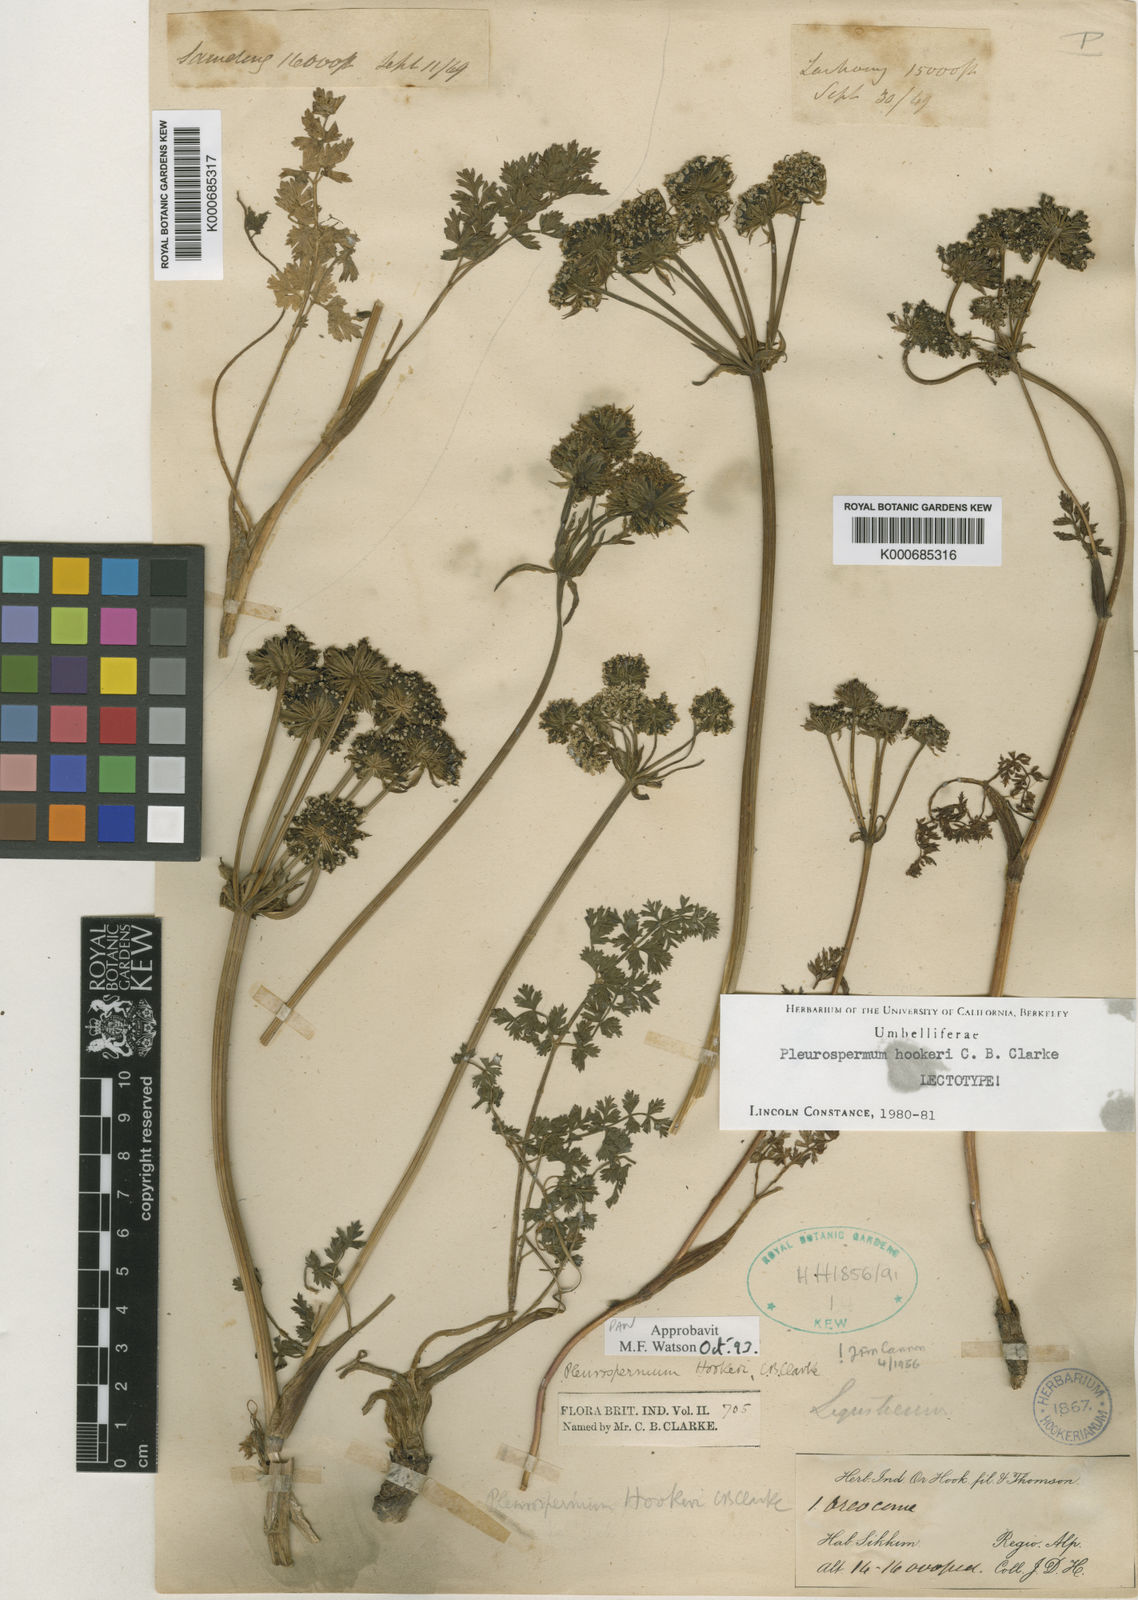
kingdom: Plantae
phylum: Tracheophyta
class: Magnoliopsida
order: Apiales
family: Apiaceae
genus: Pleurospermum
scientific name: Pleurospermum hookeri
